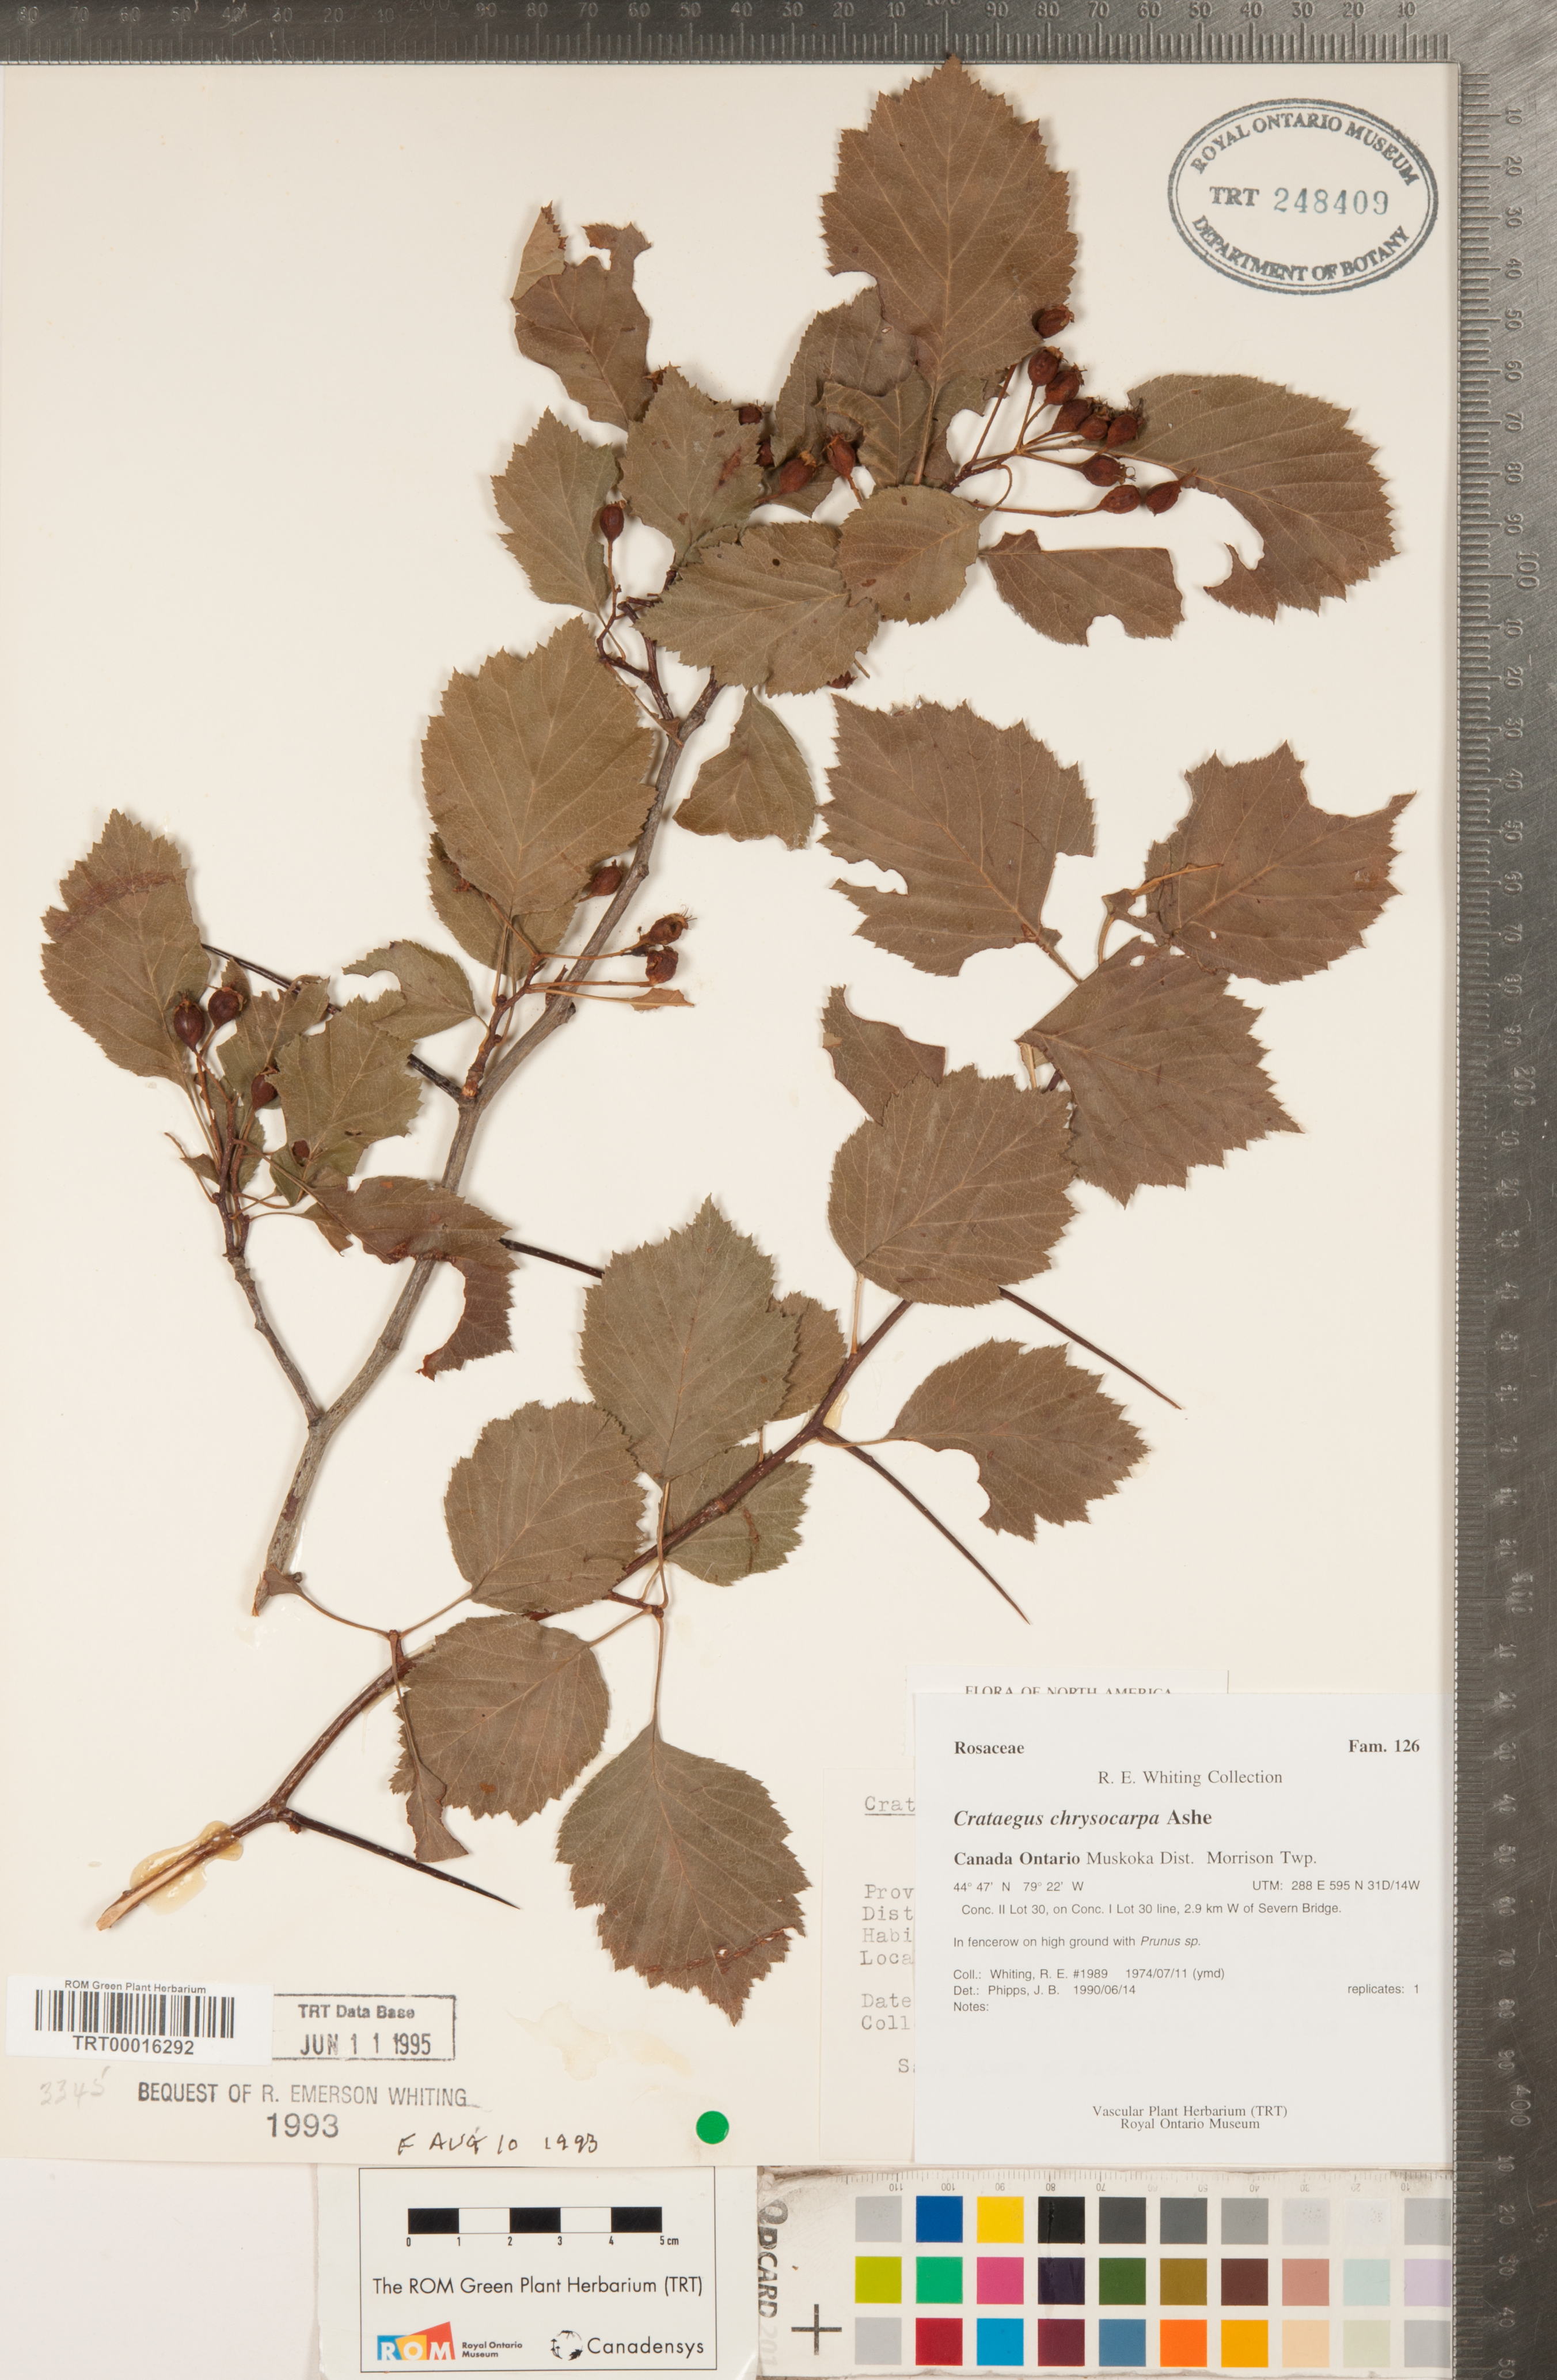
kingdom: Plantae
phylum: Tracheophyta
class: Magnoliopsida
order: Rosales
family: Rosaceae
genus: Crataegus
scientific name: Crataegus chrysocarpa
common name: Fire-berry hawthorn
